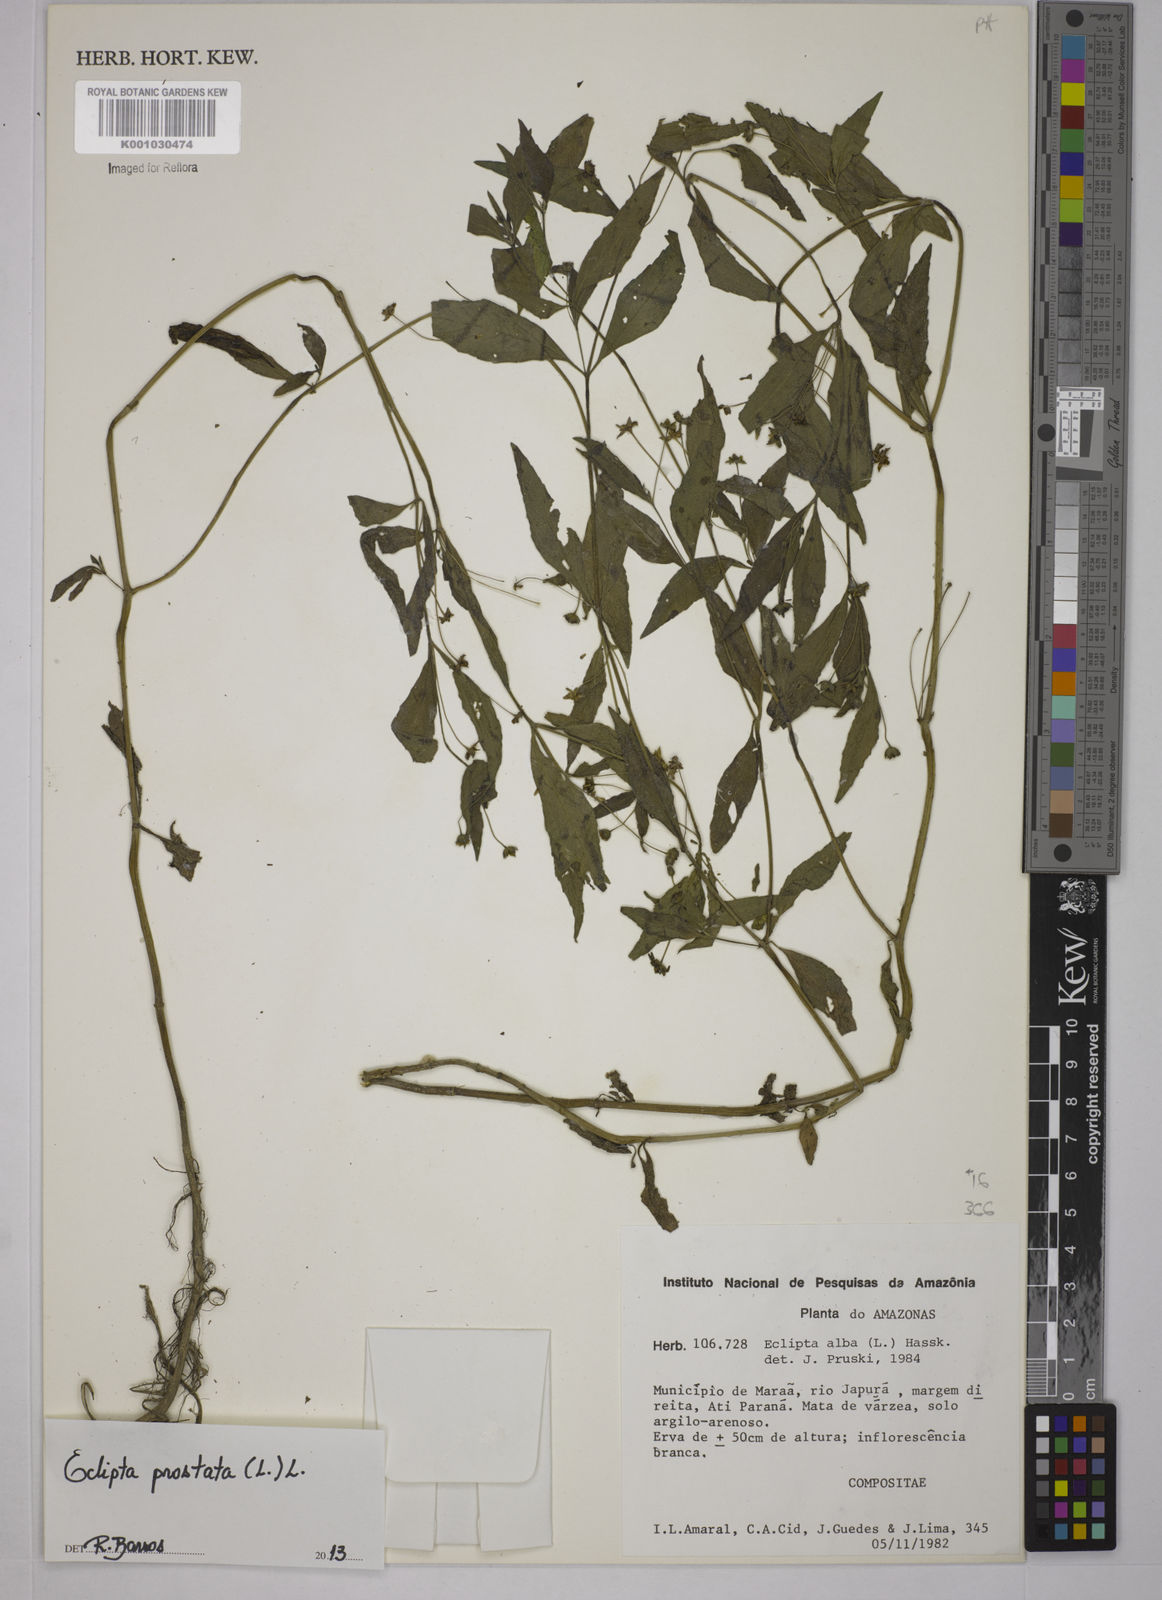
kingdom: Plantae
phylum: Tracheophyta
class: Magnoliopsida
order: Asterales
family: Asteraceae
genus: Eclipta
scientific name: Eclipta prostrata
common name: False daisy
